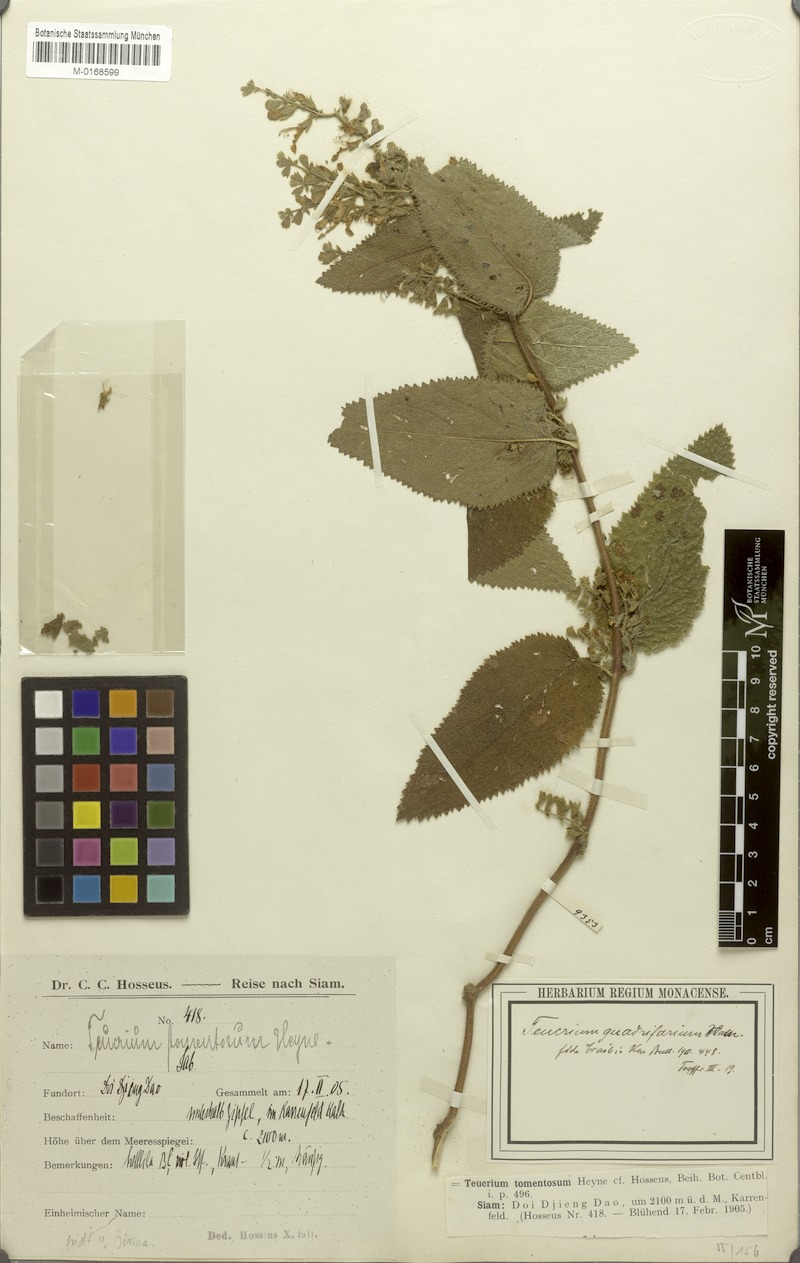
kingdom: Plantae
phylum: Tracheophyta
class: Magnoliopsida
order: Lamiales
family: Lamiaceae
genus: Teucrium
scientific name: Teucrium quadrifarium
